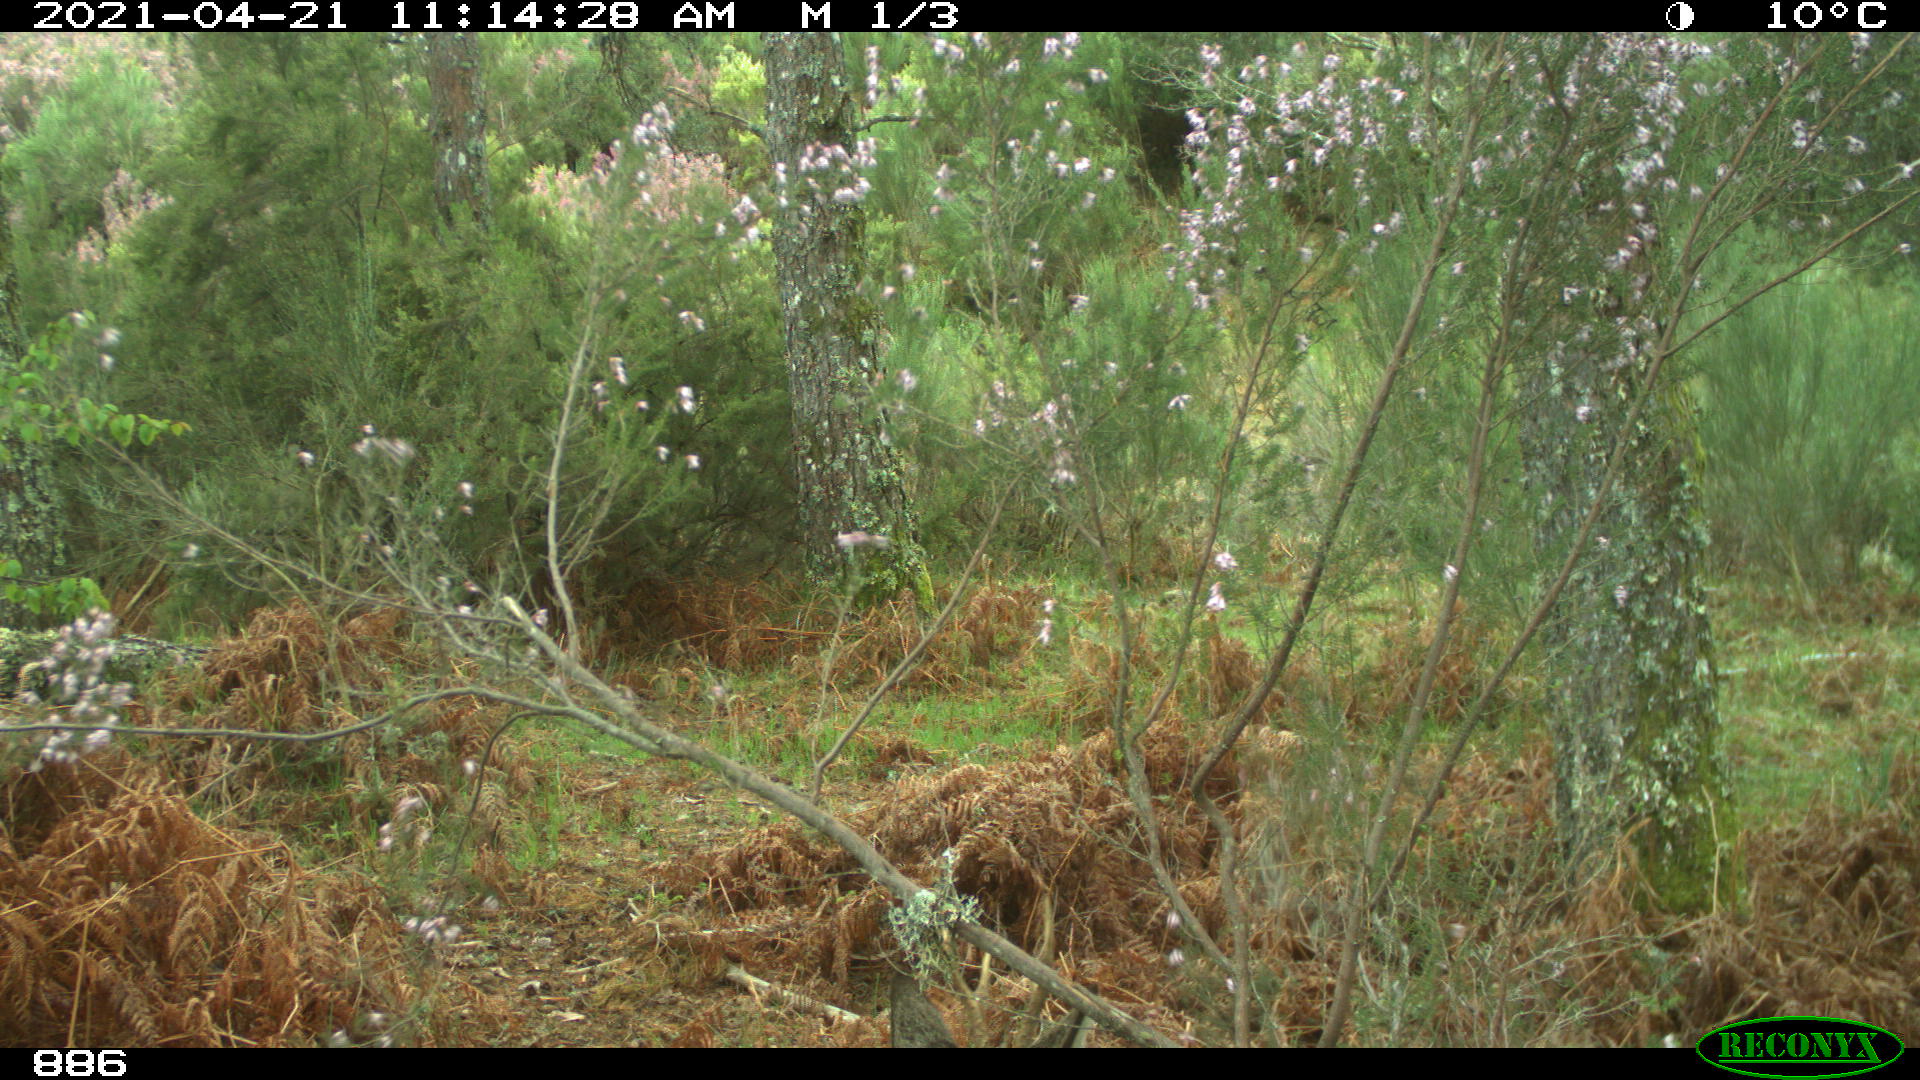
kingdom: Animalia
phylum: Chordata
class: Mammalia
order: Artiodactyla
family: Cervidae
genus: Capreolus
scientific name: Capreolus capreolus
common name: Western roe deer
